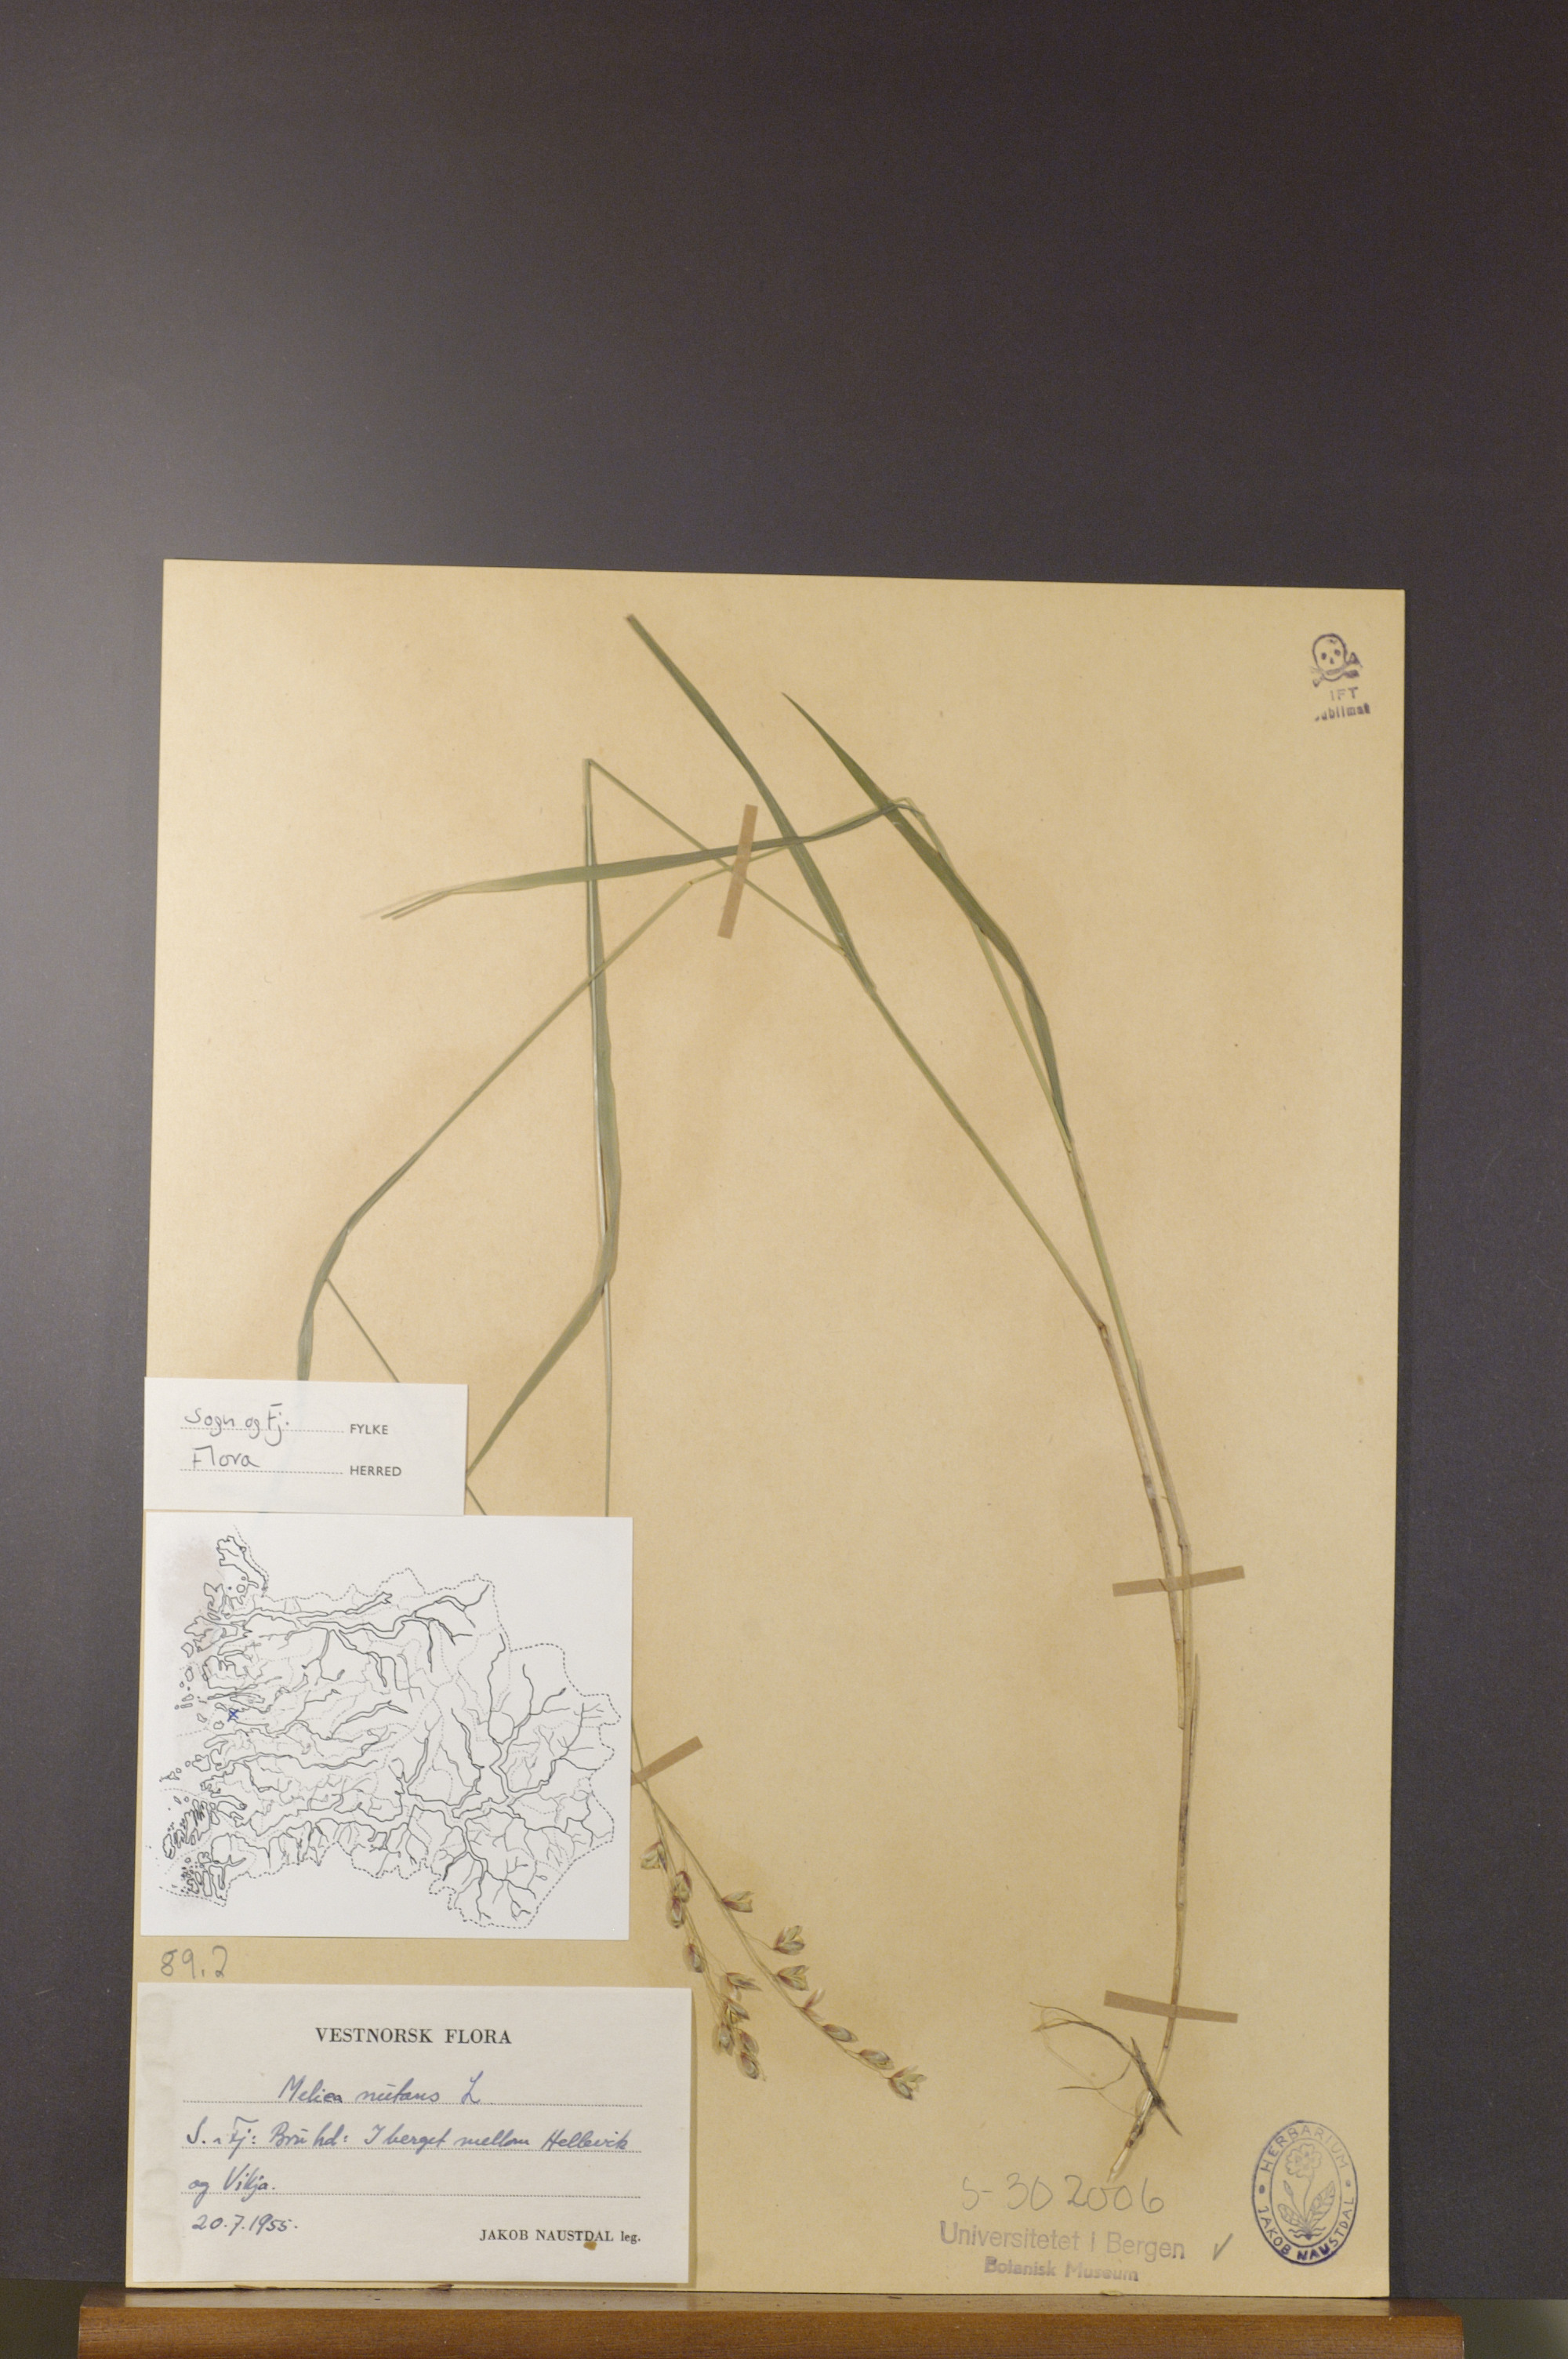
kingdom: Plantae
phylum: Tracheophyta
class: Liliopsida
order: Poales
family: Poaceae
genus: Melica
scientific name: Melica nutans
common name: Mountain melick
